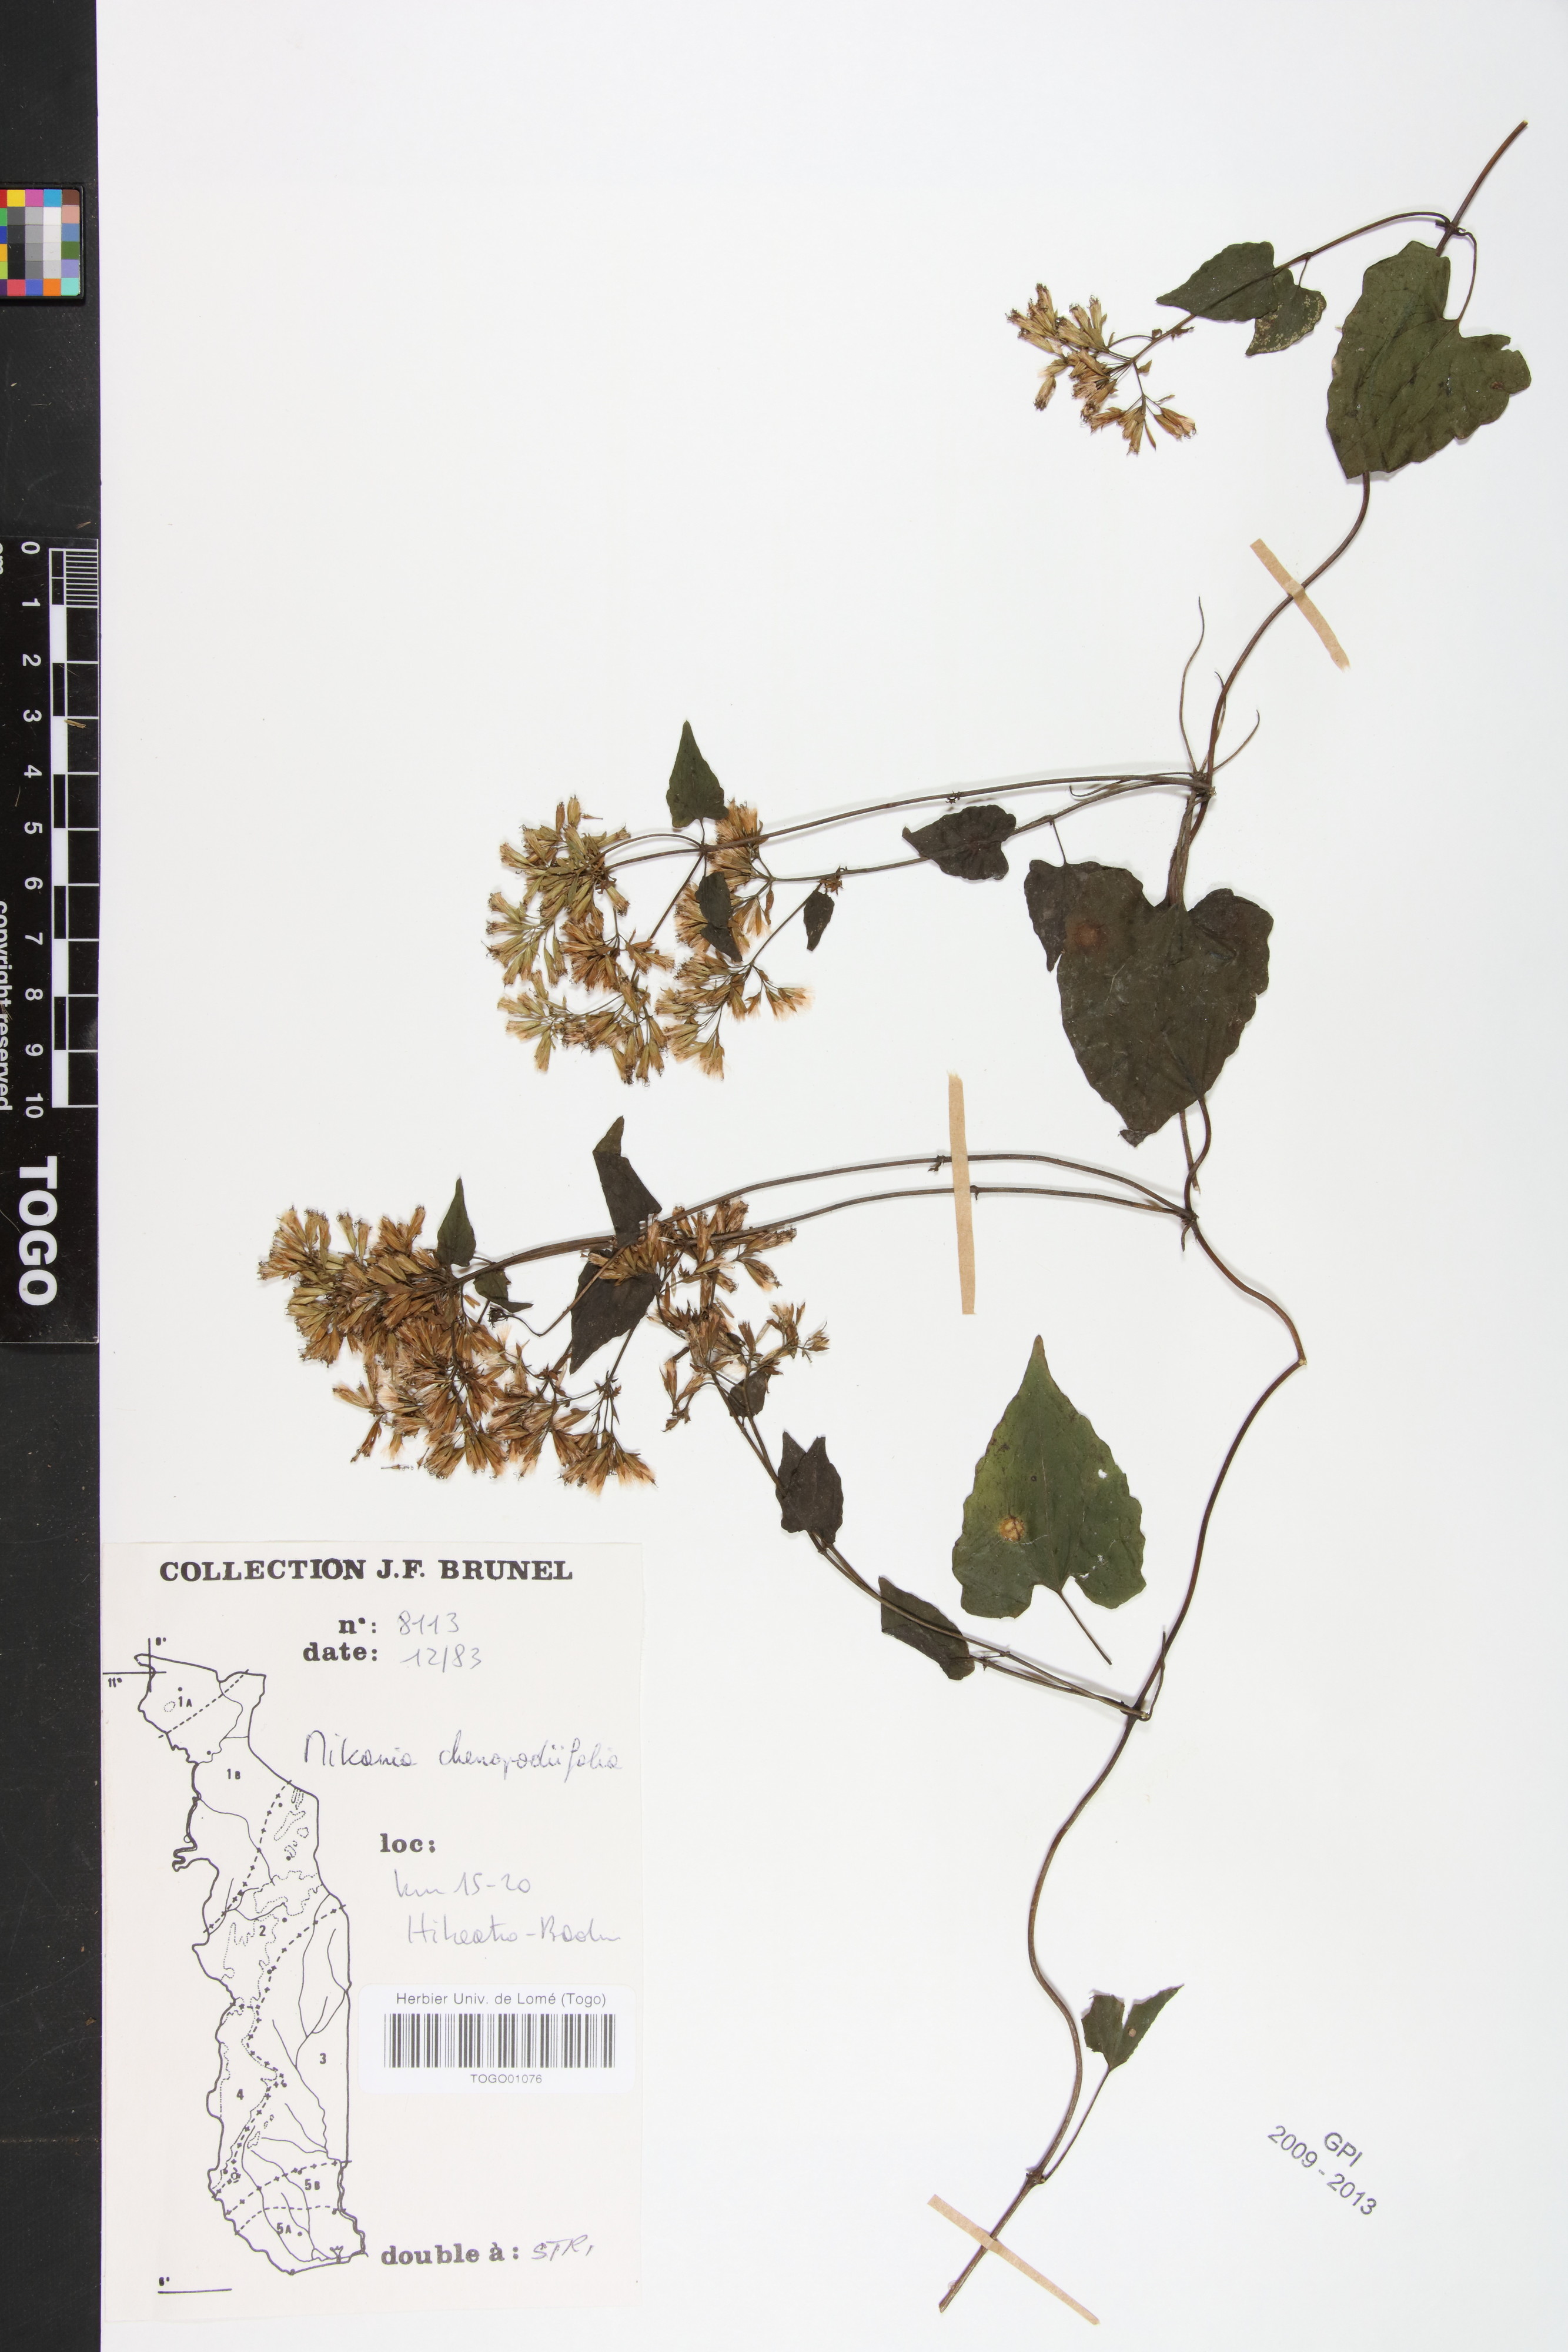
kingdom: Plantae
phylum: Tracheophyta
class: Magnoliopsida
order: Asterales
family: Asteraceae
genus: Mikania
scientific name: Mikania chenopodifolia
